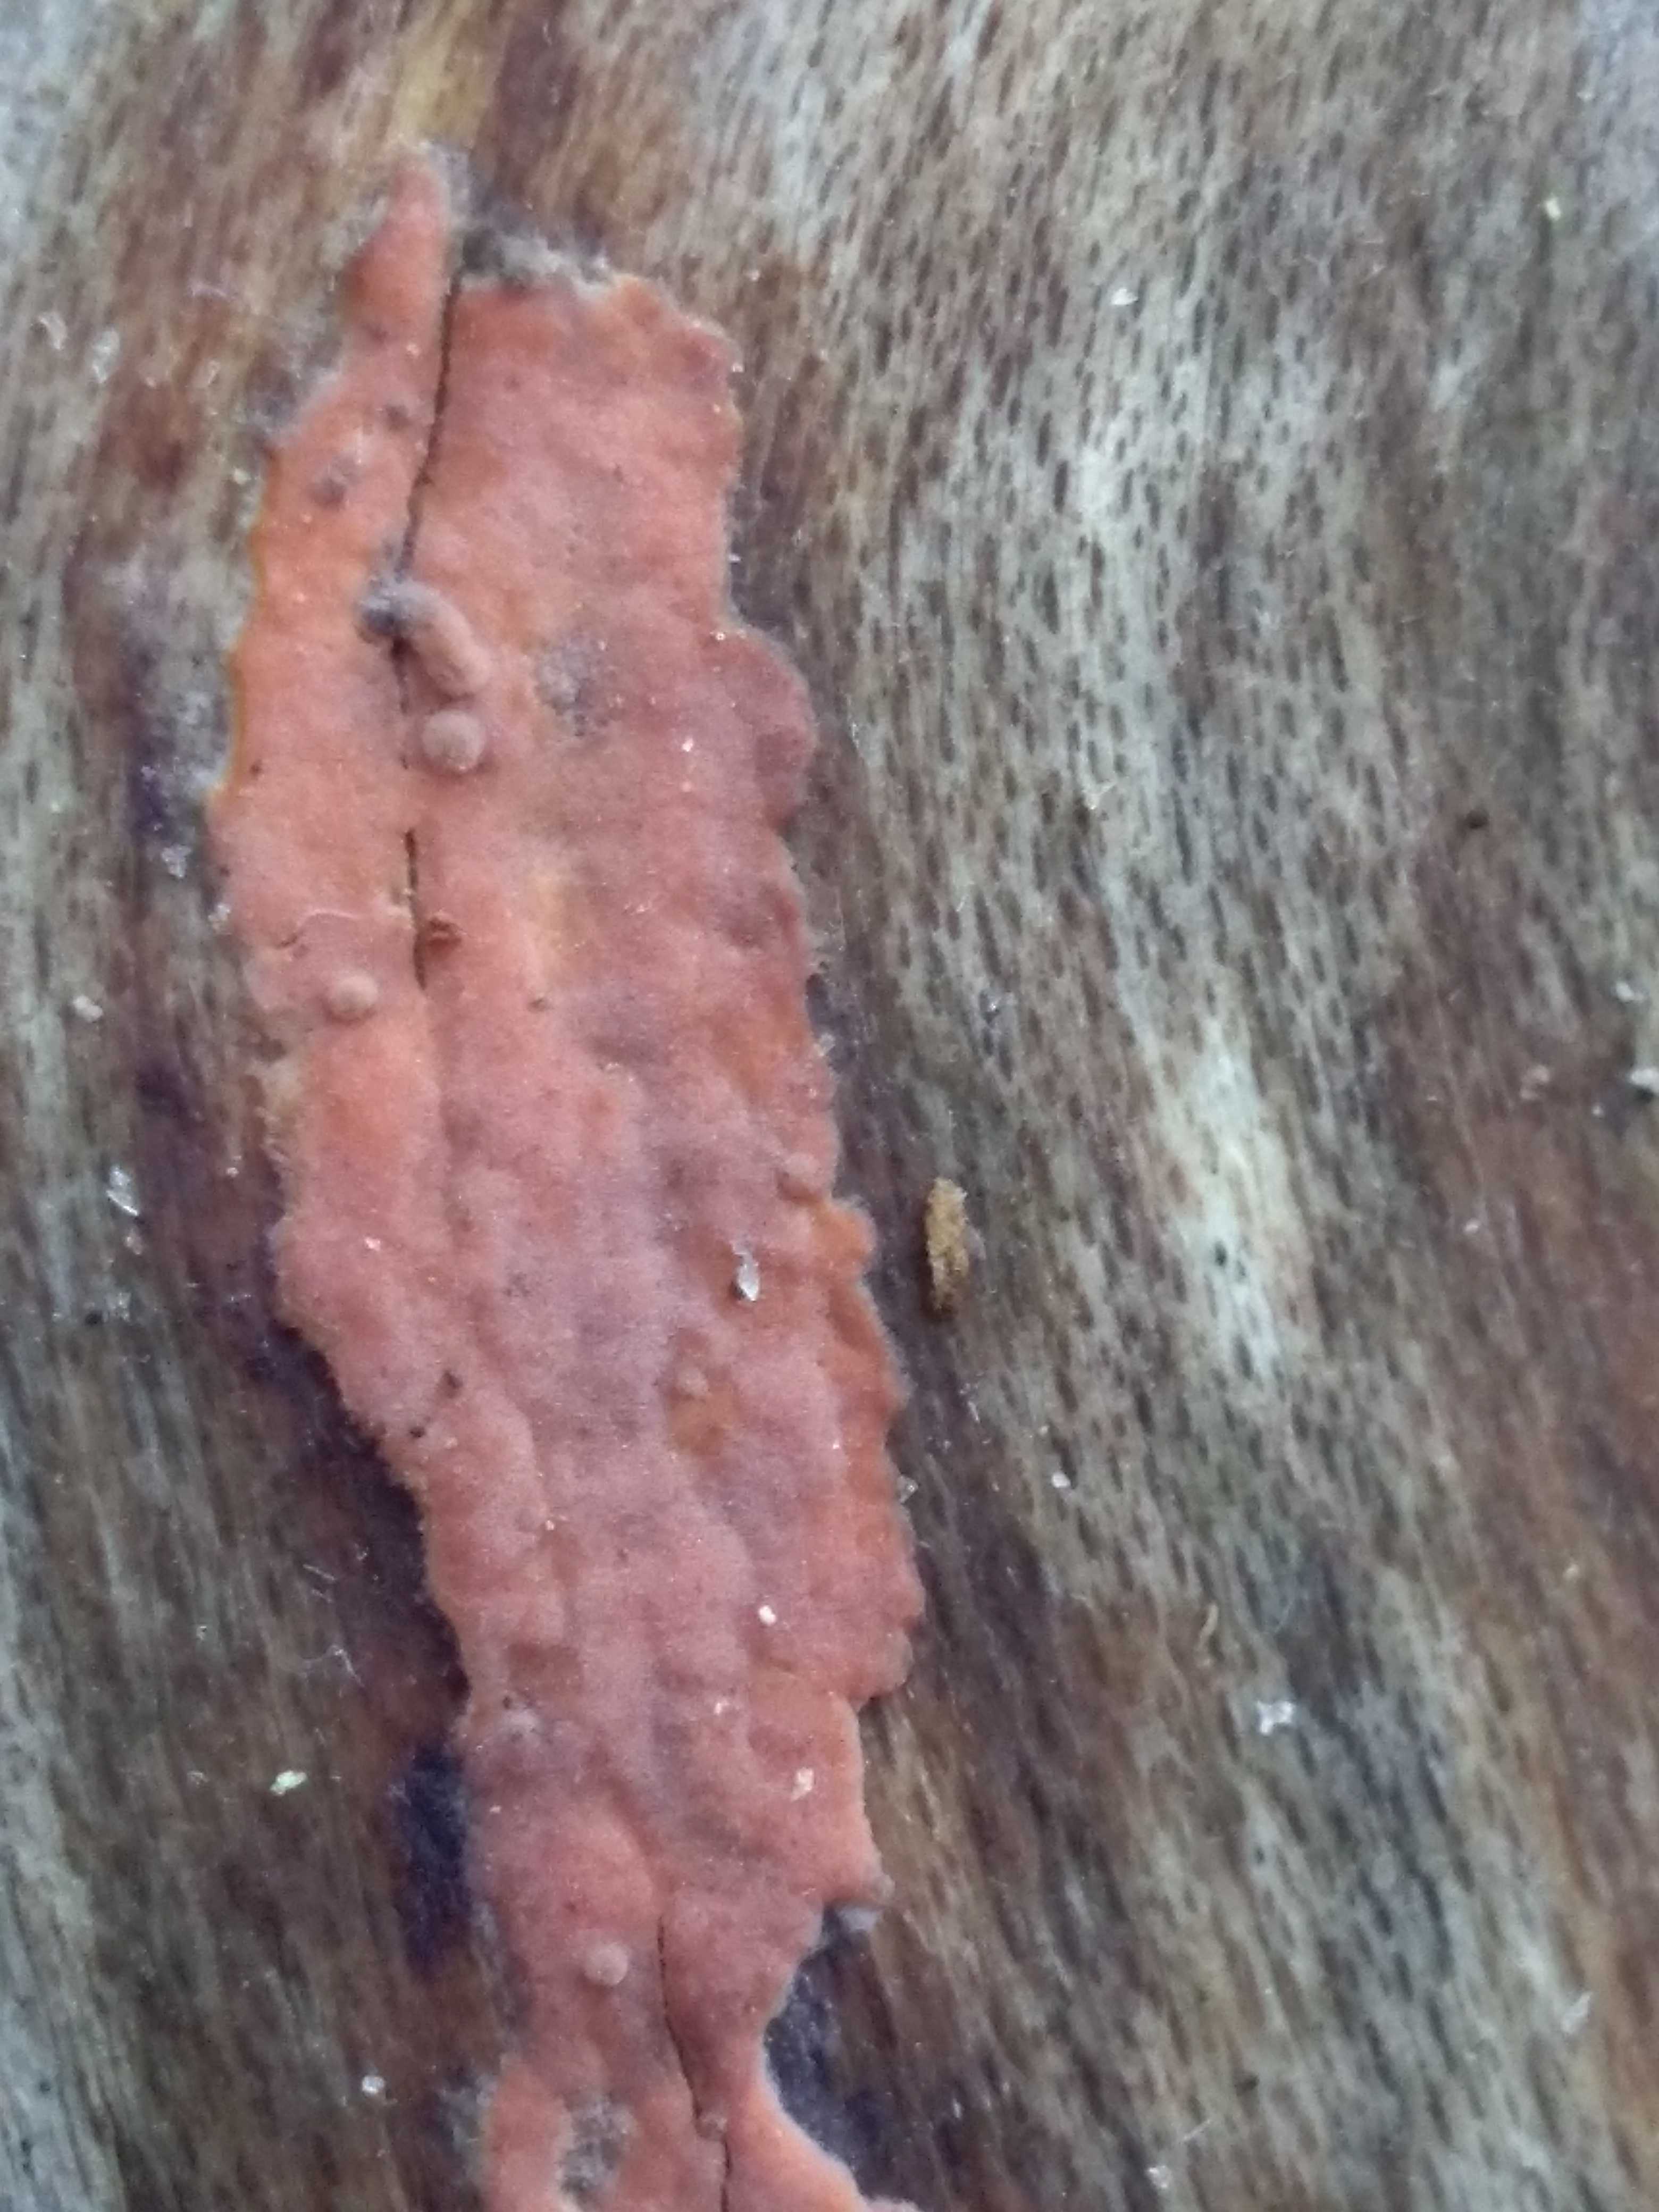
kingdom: Fungi
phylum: Basidiomycota
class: Agaricomycetes
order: Russulales
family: Peniophoraceae
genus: Peniophora
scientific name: Peniophora incarnata
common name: laksefarvet voksskind
